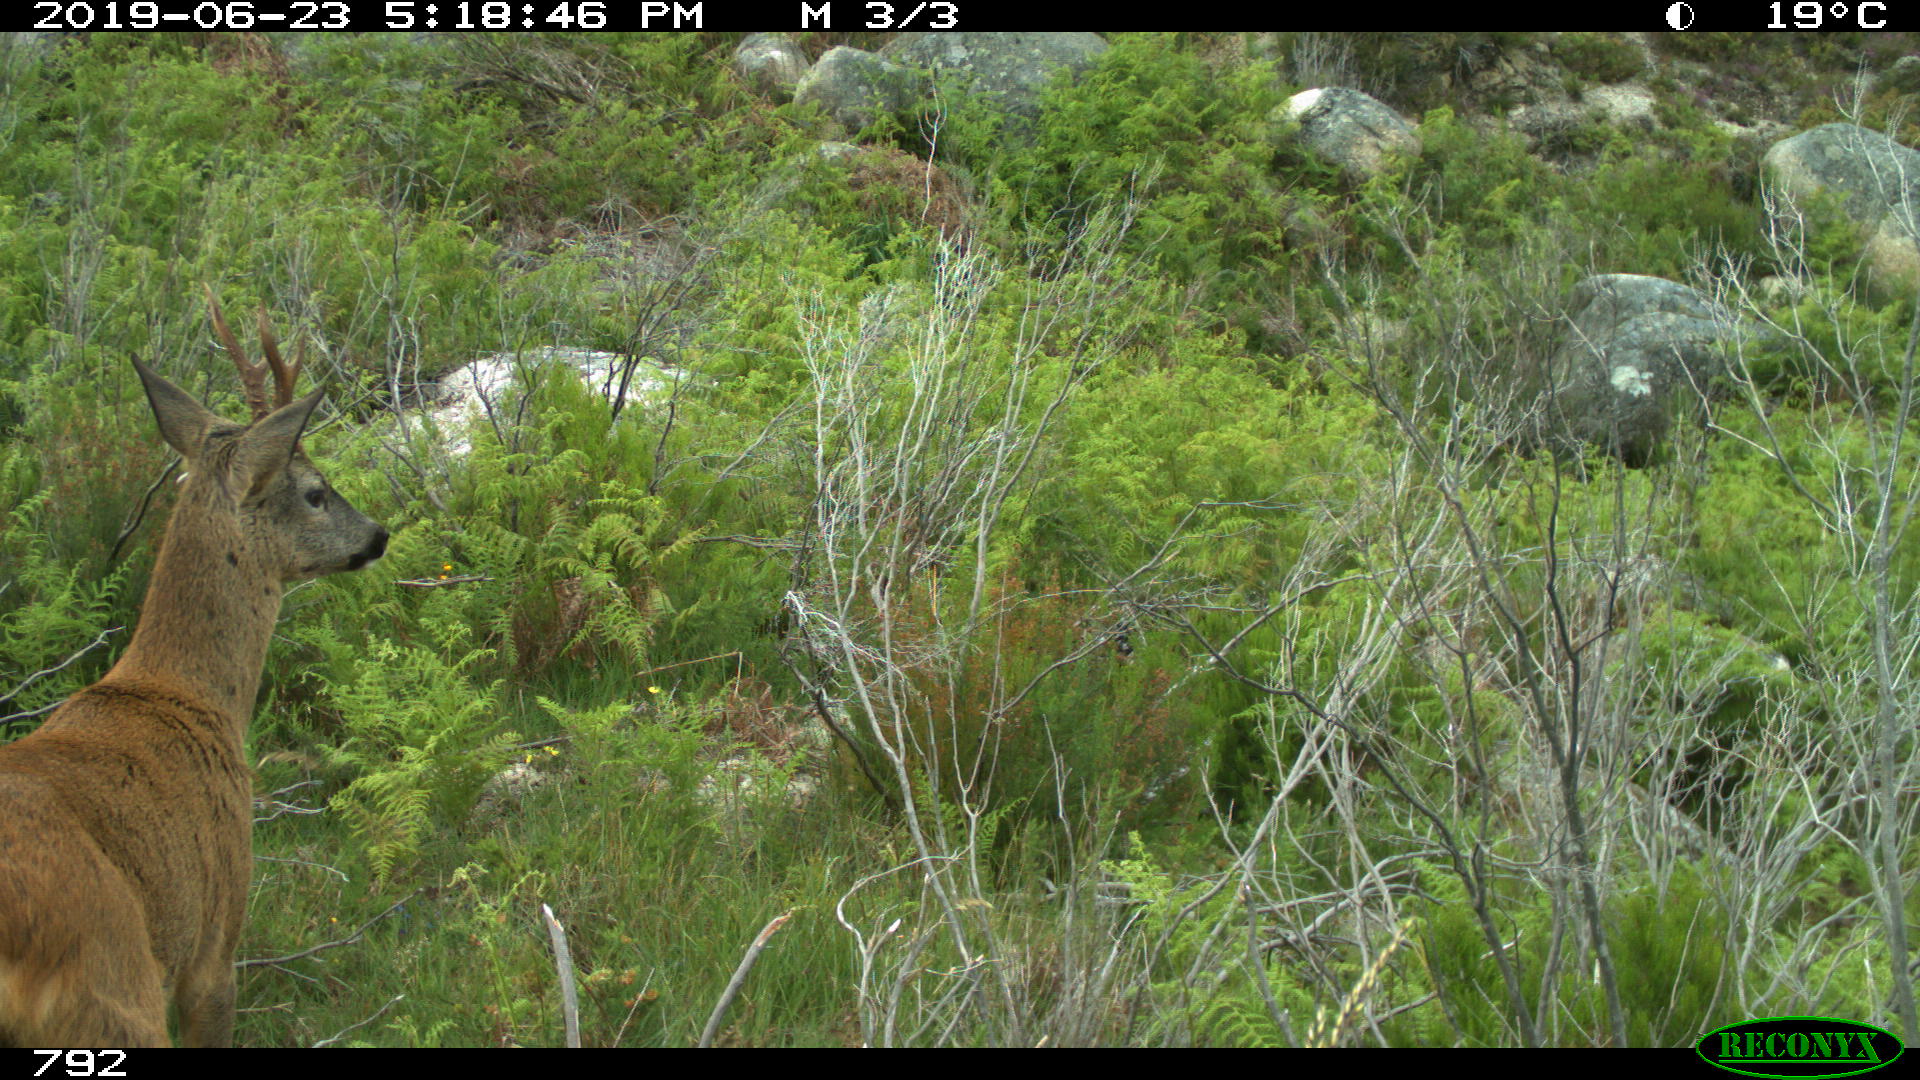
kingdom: Animalia
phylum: Chordata
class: Mammalia
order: Artiodactyla
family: Cervidae
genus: Capreolus
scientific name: Capreolus capreolus
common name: Western roe deer
